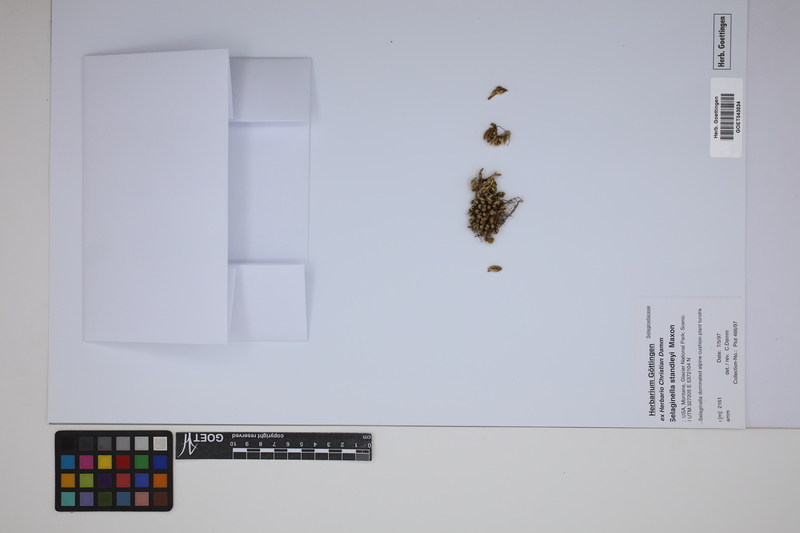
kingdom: Plantae
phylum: Tracheophyta
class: Lycopodiopsida
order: Selaginellales
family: Selaginellaceae
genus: Selaginella
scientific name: Selaginella densa
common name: Mountain spike-moss
